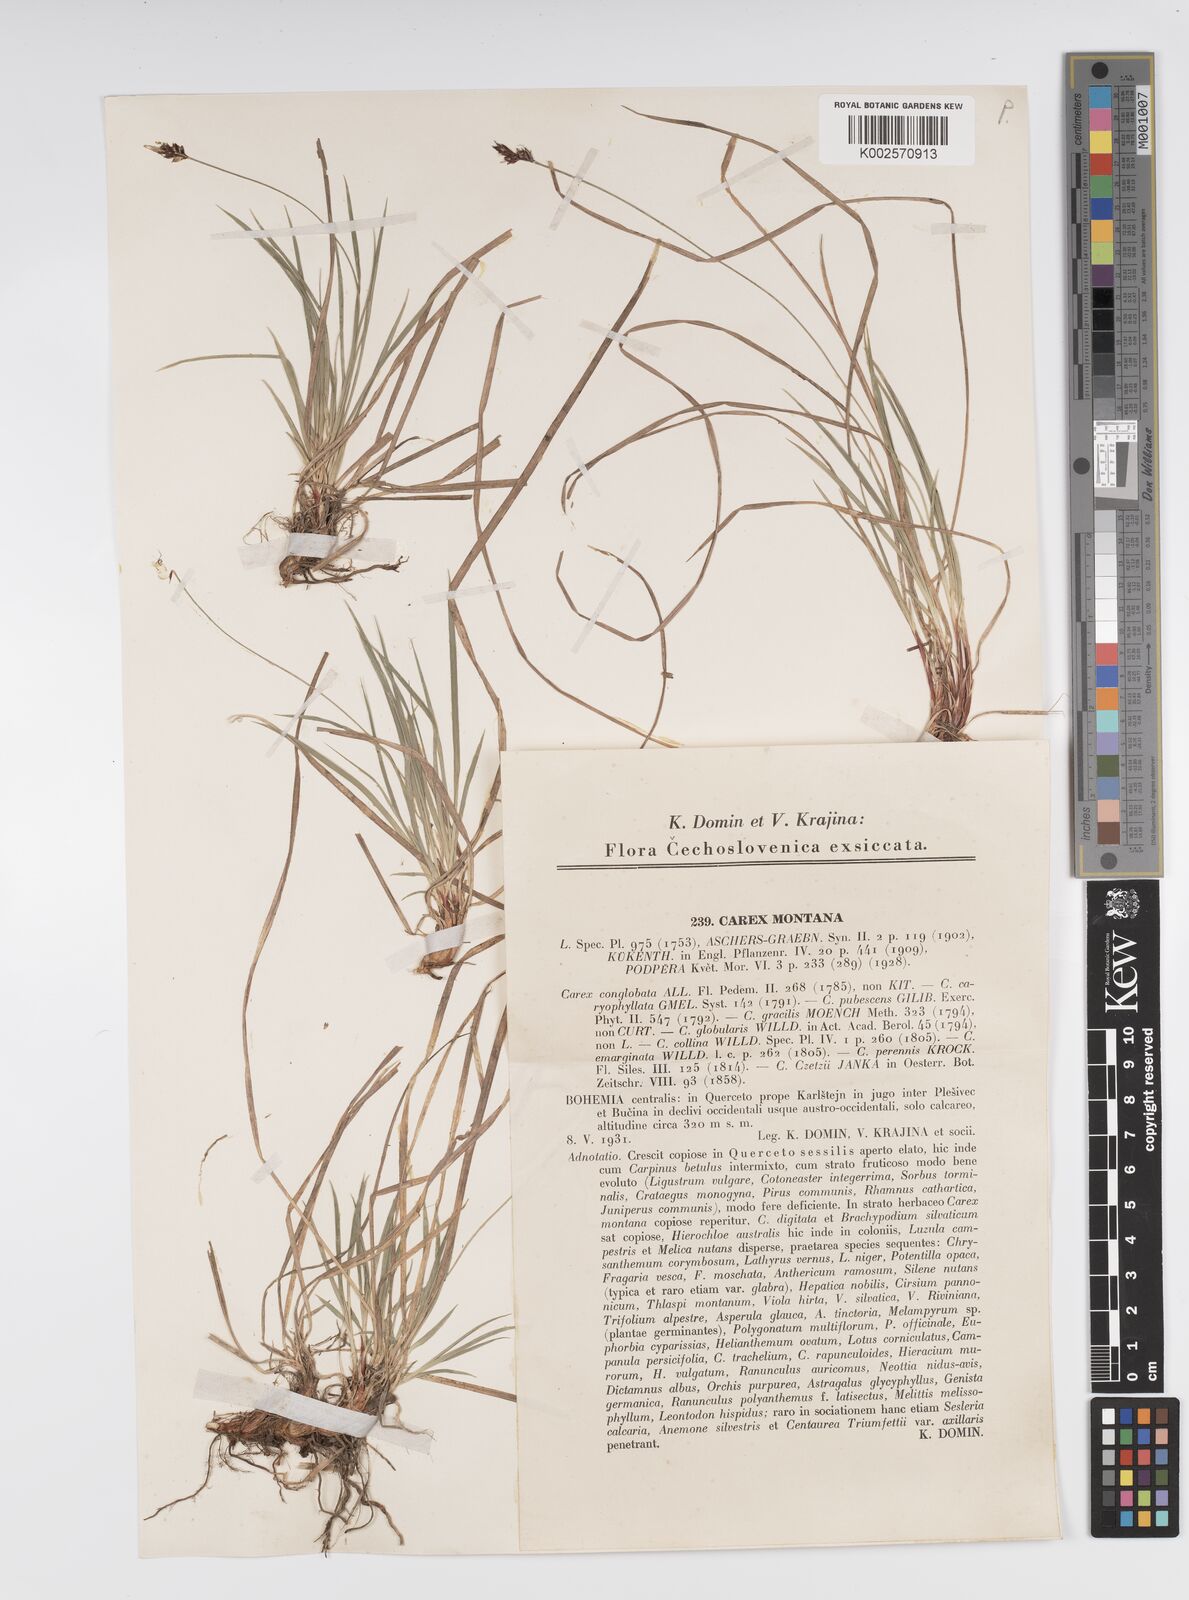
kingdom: Plantae
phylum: Tracheophyta
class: Liliopsida
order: Poales
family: Cyperaceae
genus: Carex
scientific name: Carex montana
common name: Soft-leaved sedge
